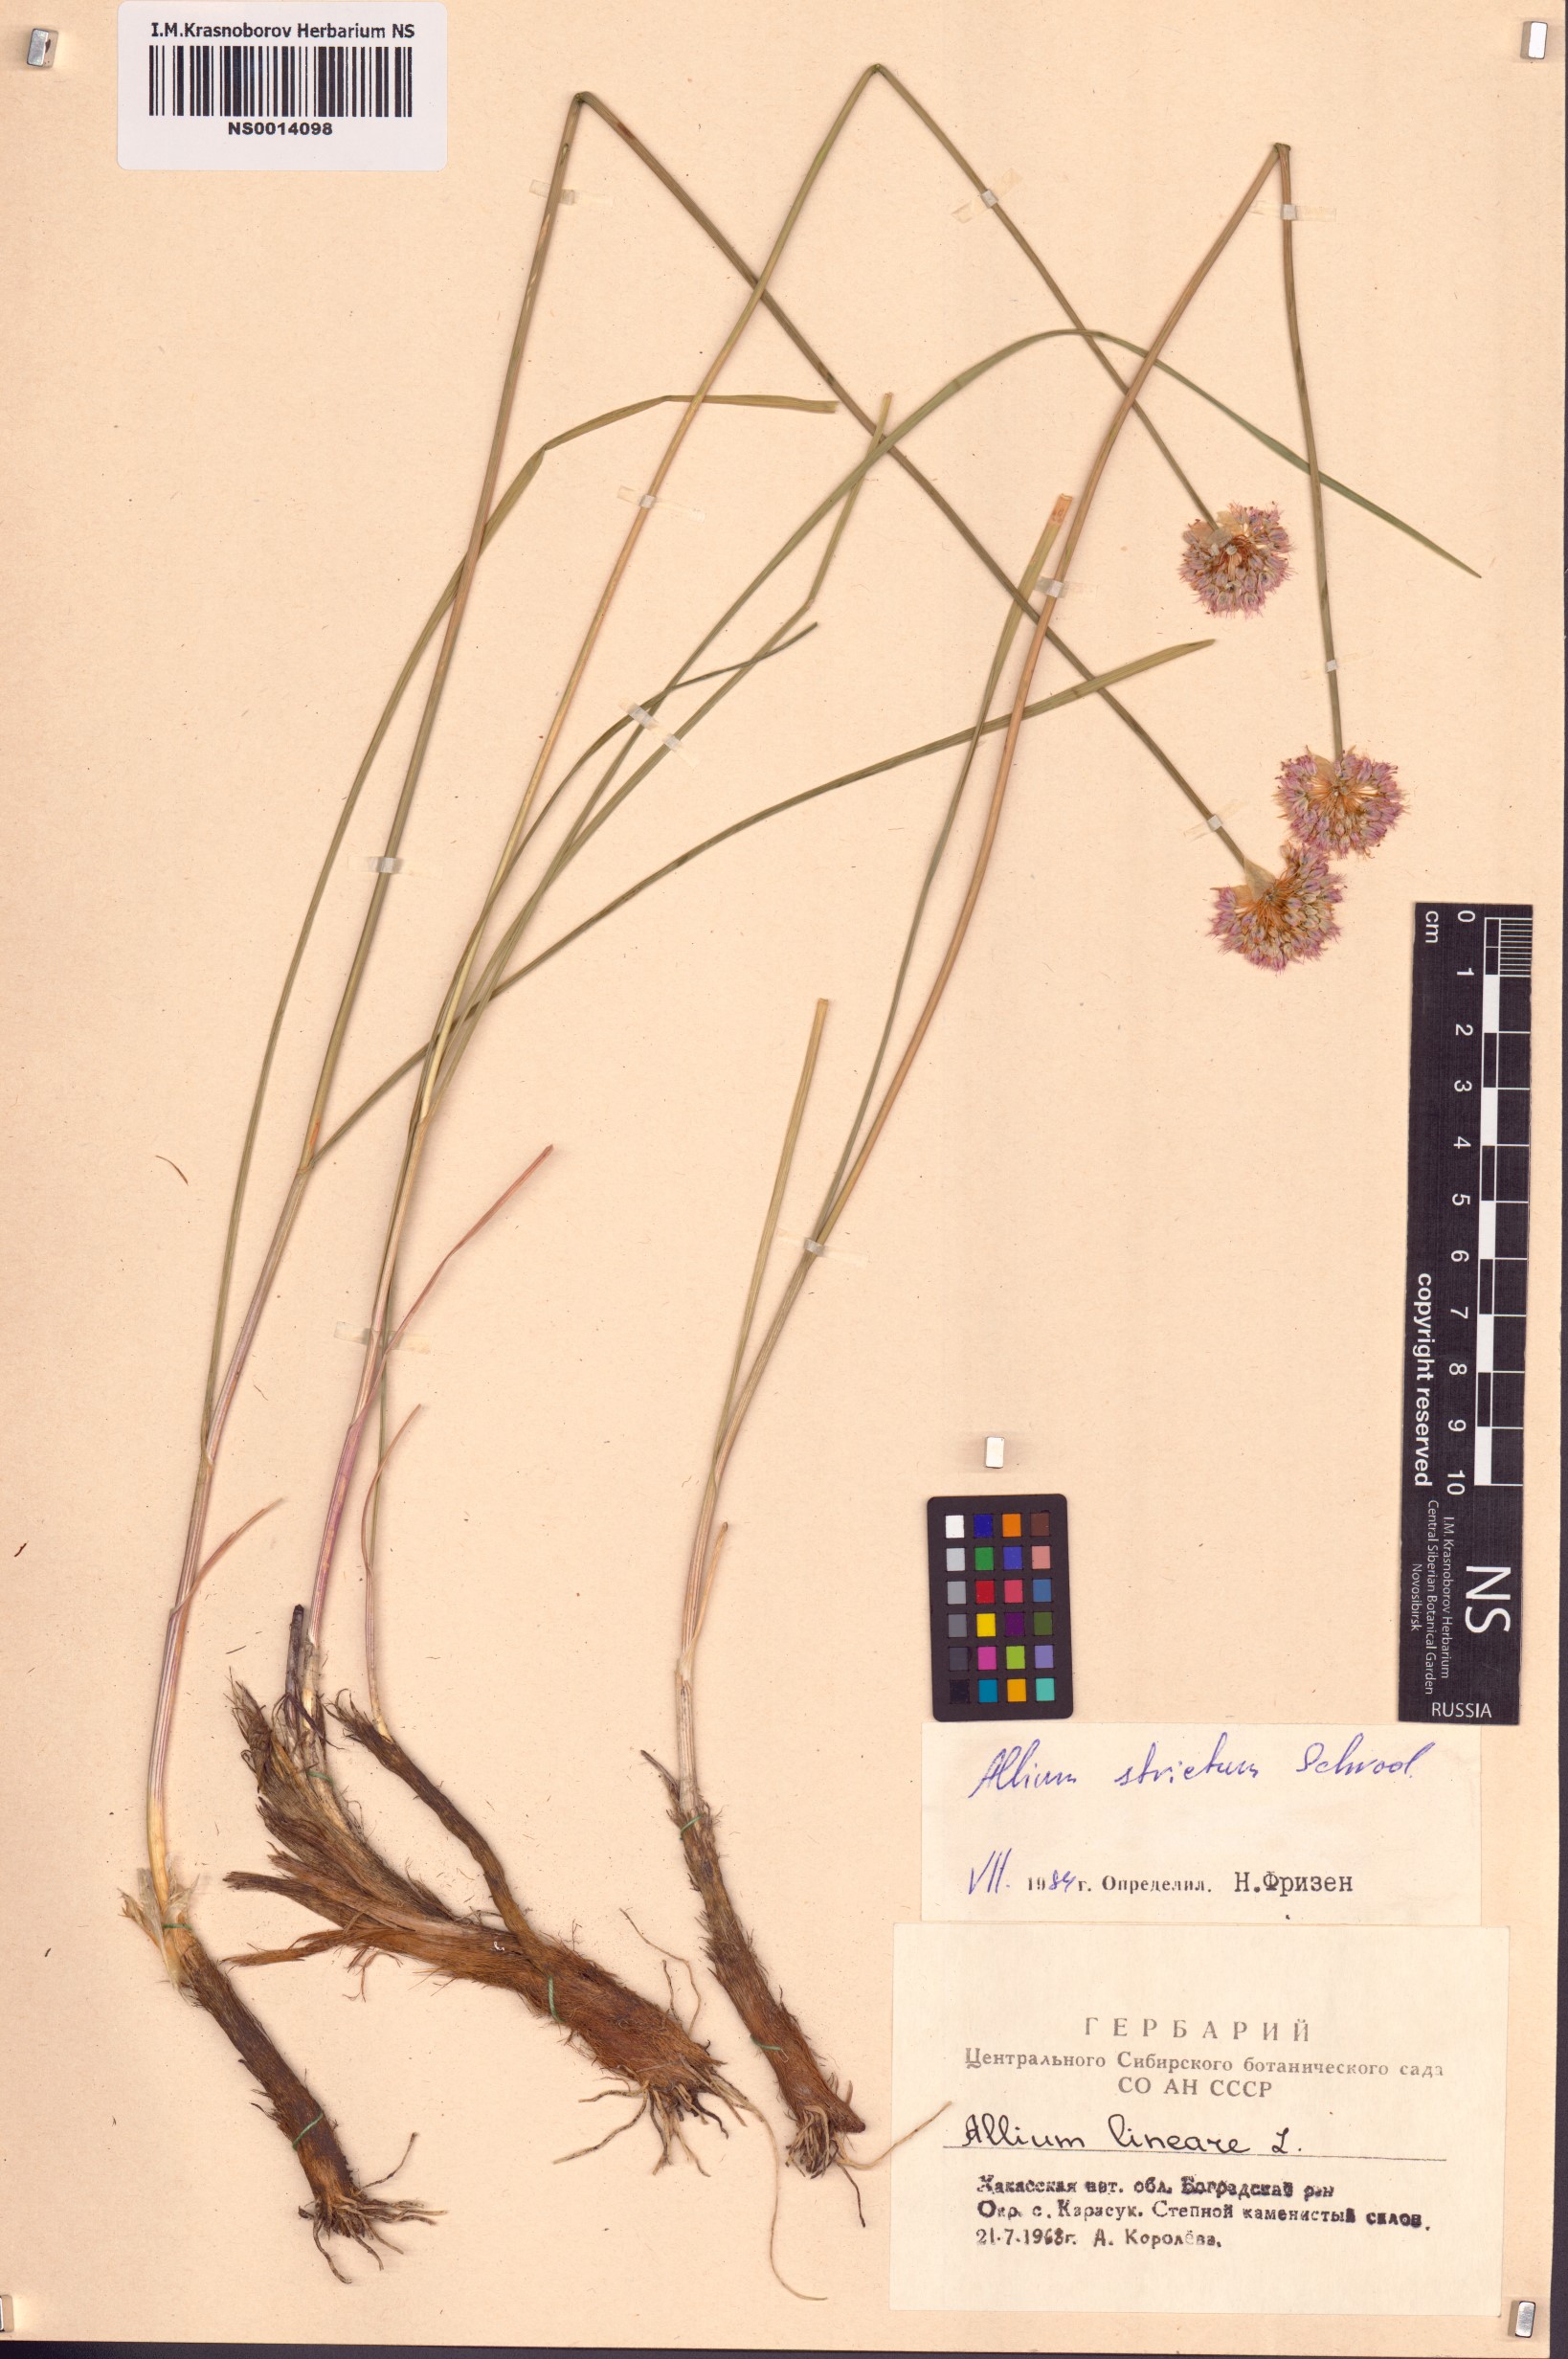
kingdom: Plantae
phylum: Tracheophyta
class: Liliopsida
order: Asparagales
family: Amaryllidaceae
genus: Allium
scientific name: Allium strictum
